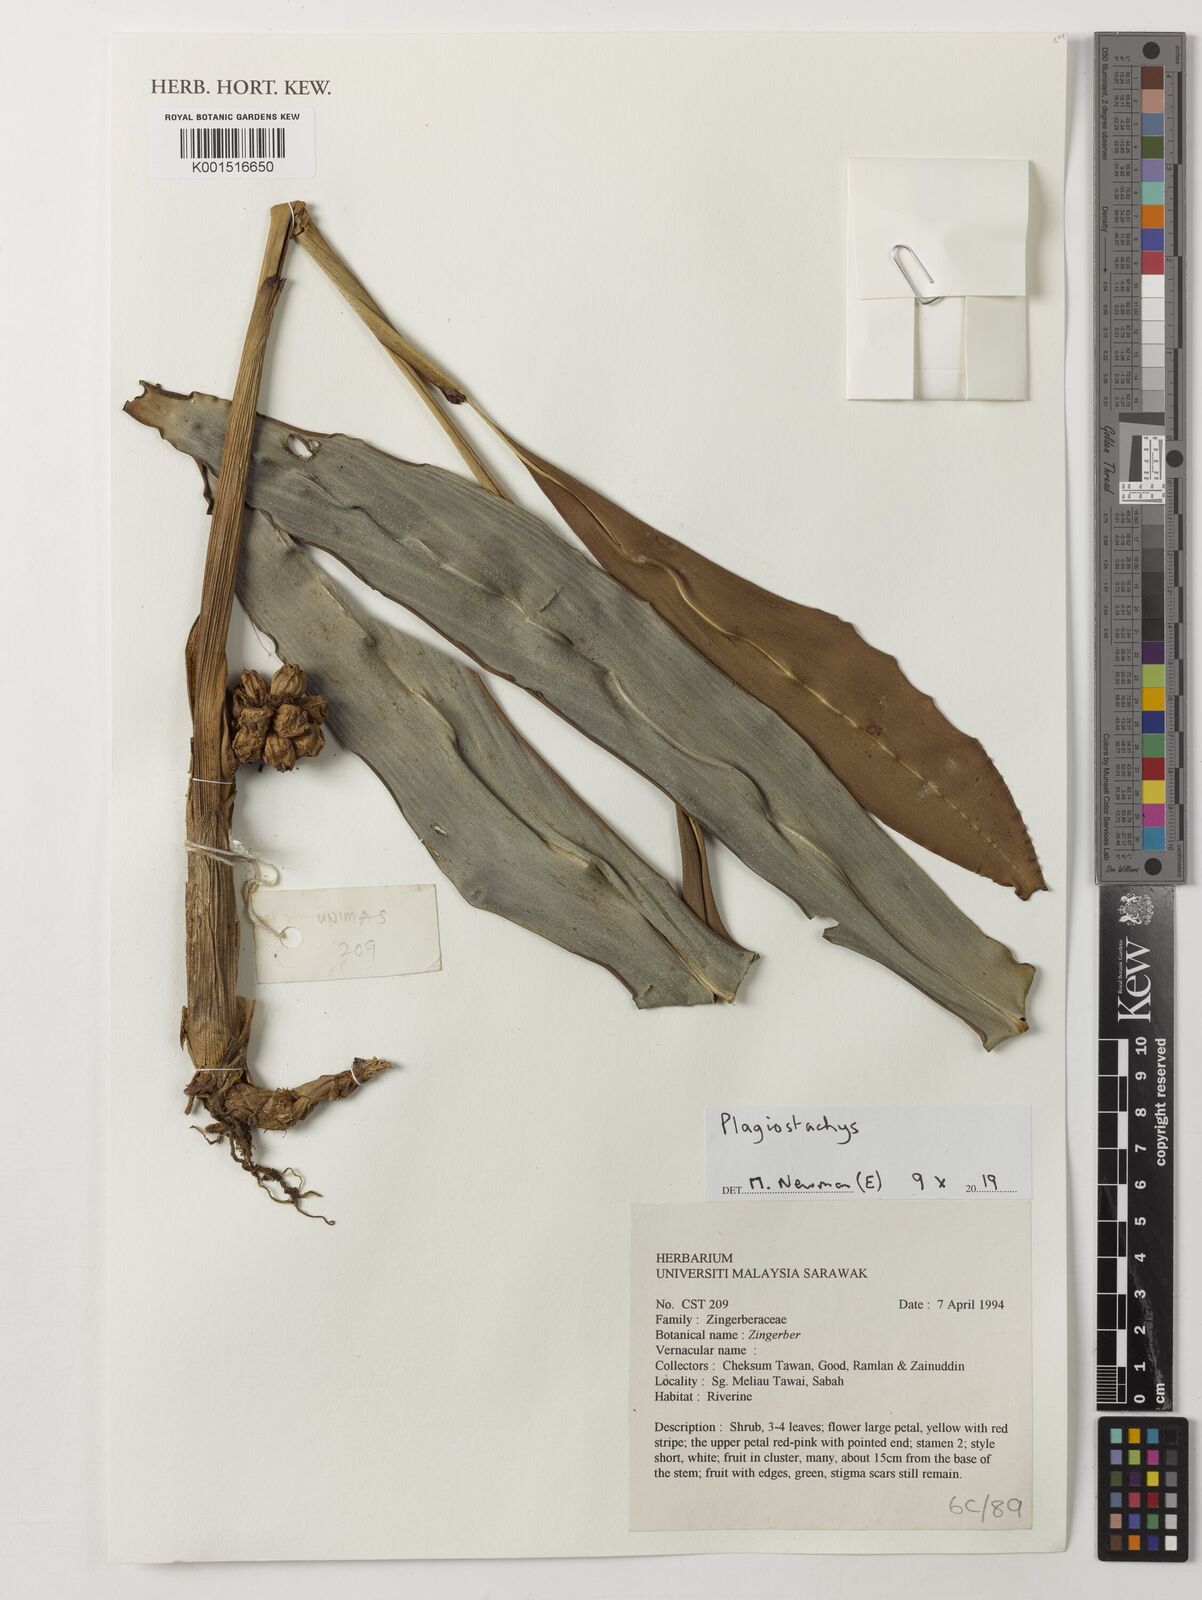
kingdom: Plantae
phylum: Tracheophyta
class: Liliopsida
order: Zingiberales
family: Zingiberaceae
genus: Plagiostachys
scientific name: Plagiostachys
